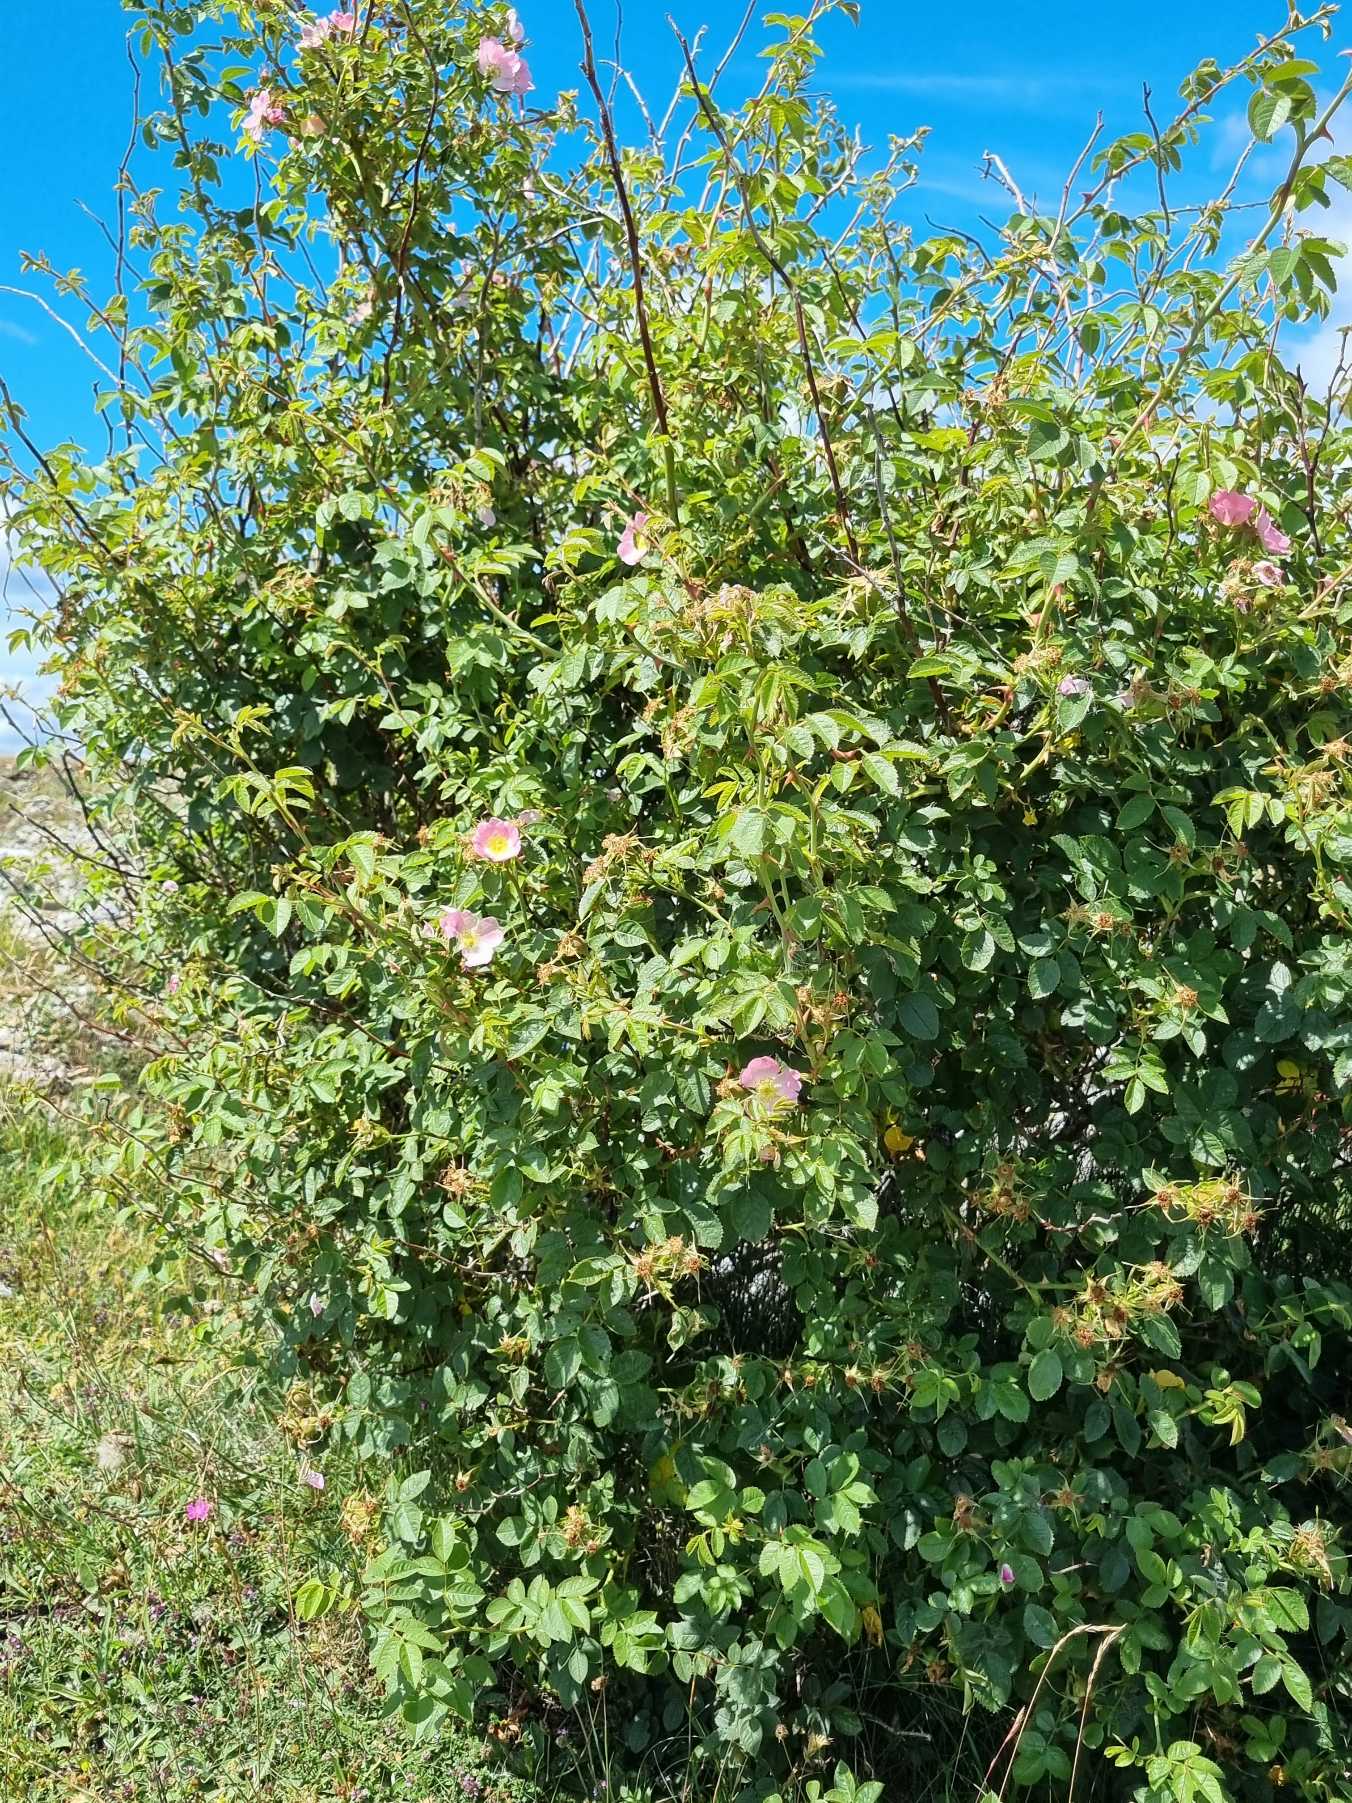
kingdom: Plantae
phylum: Tracheophyta
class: Magnoliopsida
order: Rosales
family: Rosaceae
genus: Rosa
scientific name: Rosa rubiginosa
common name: Æble-rose
